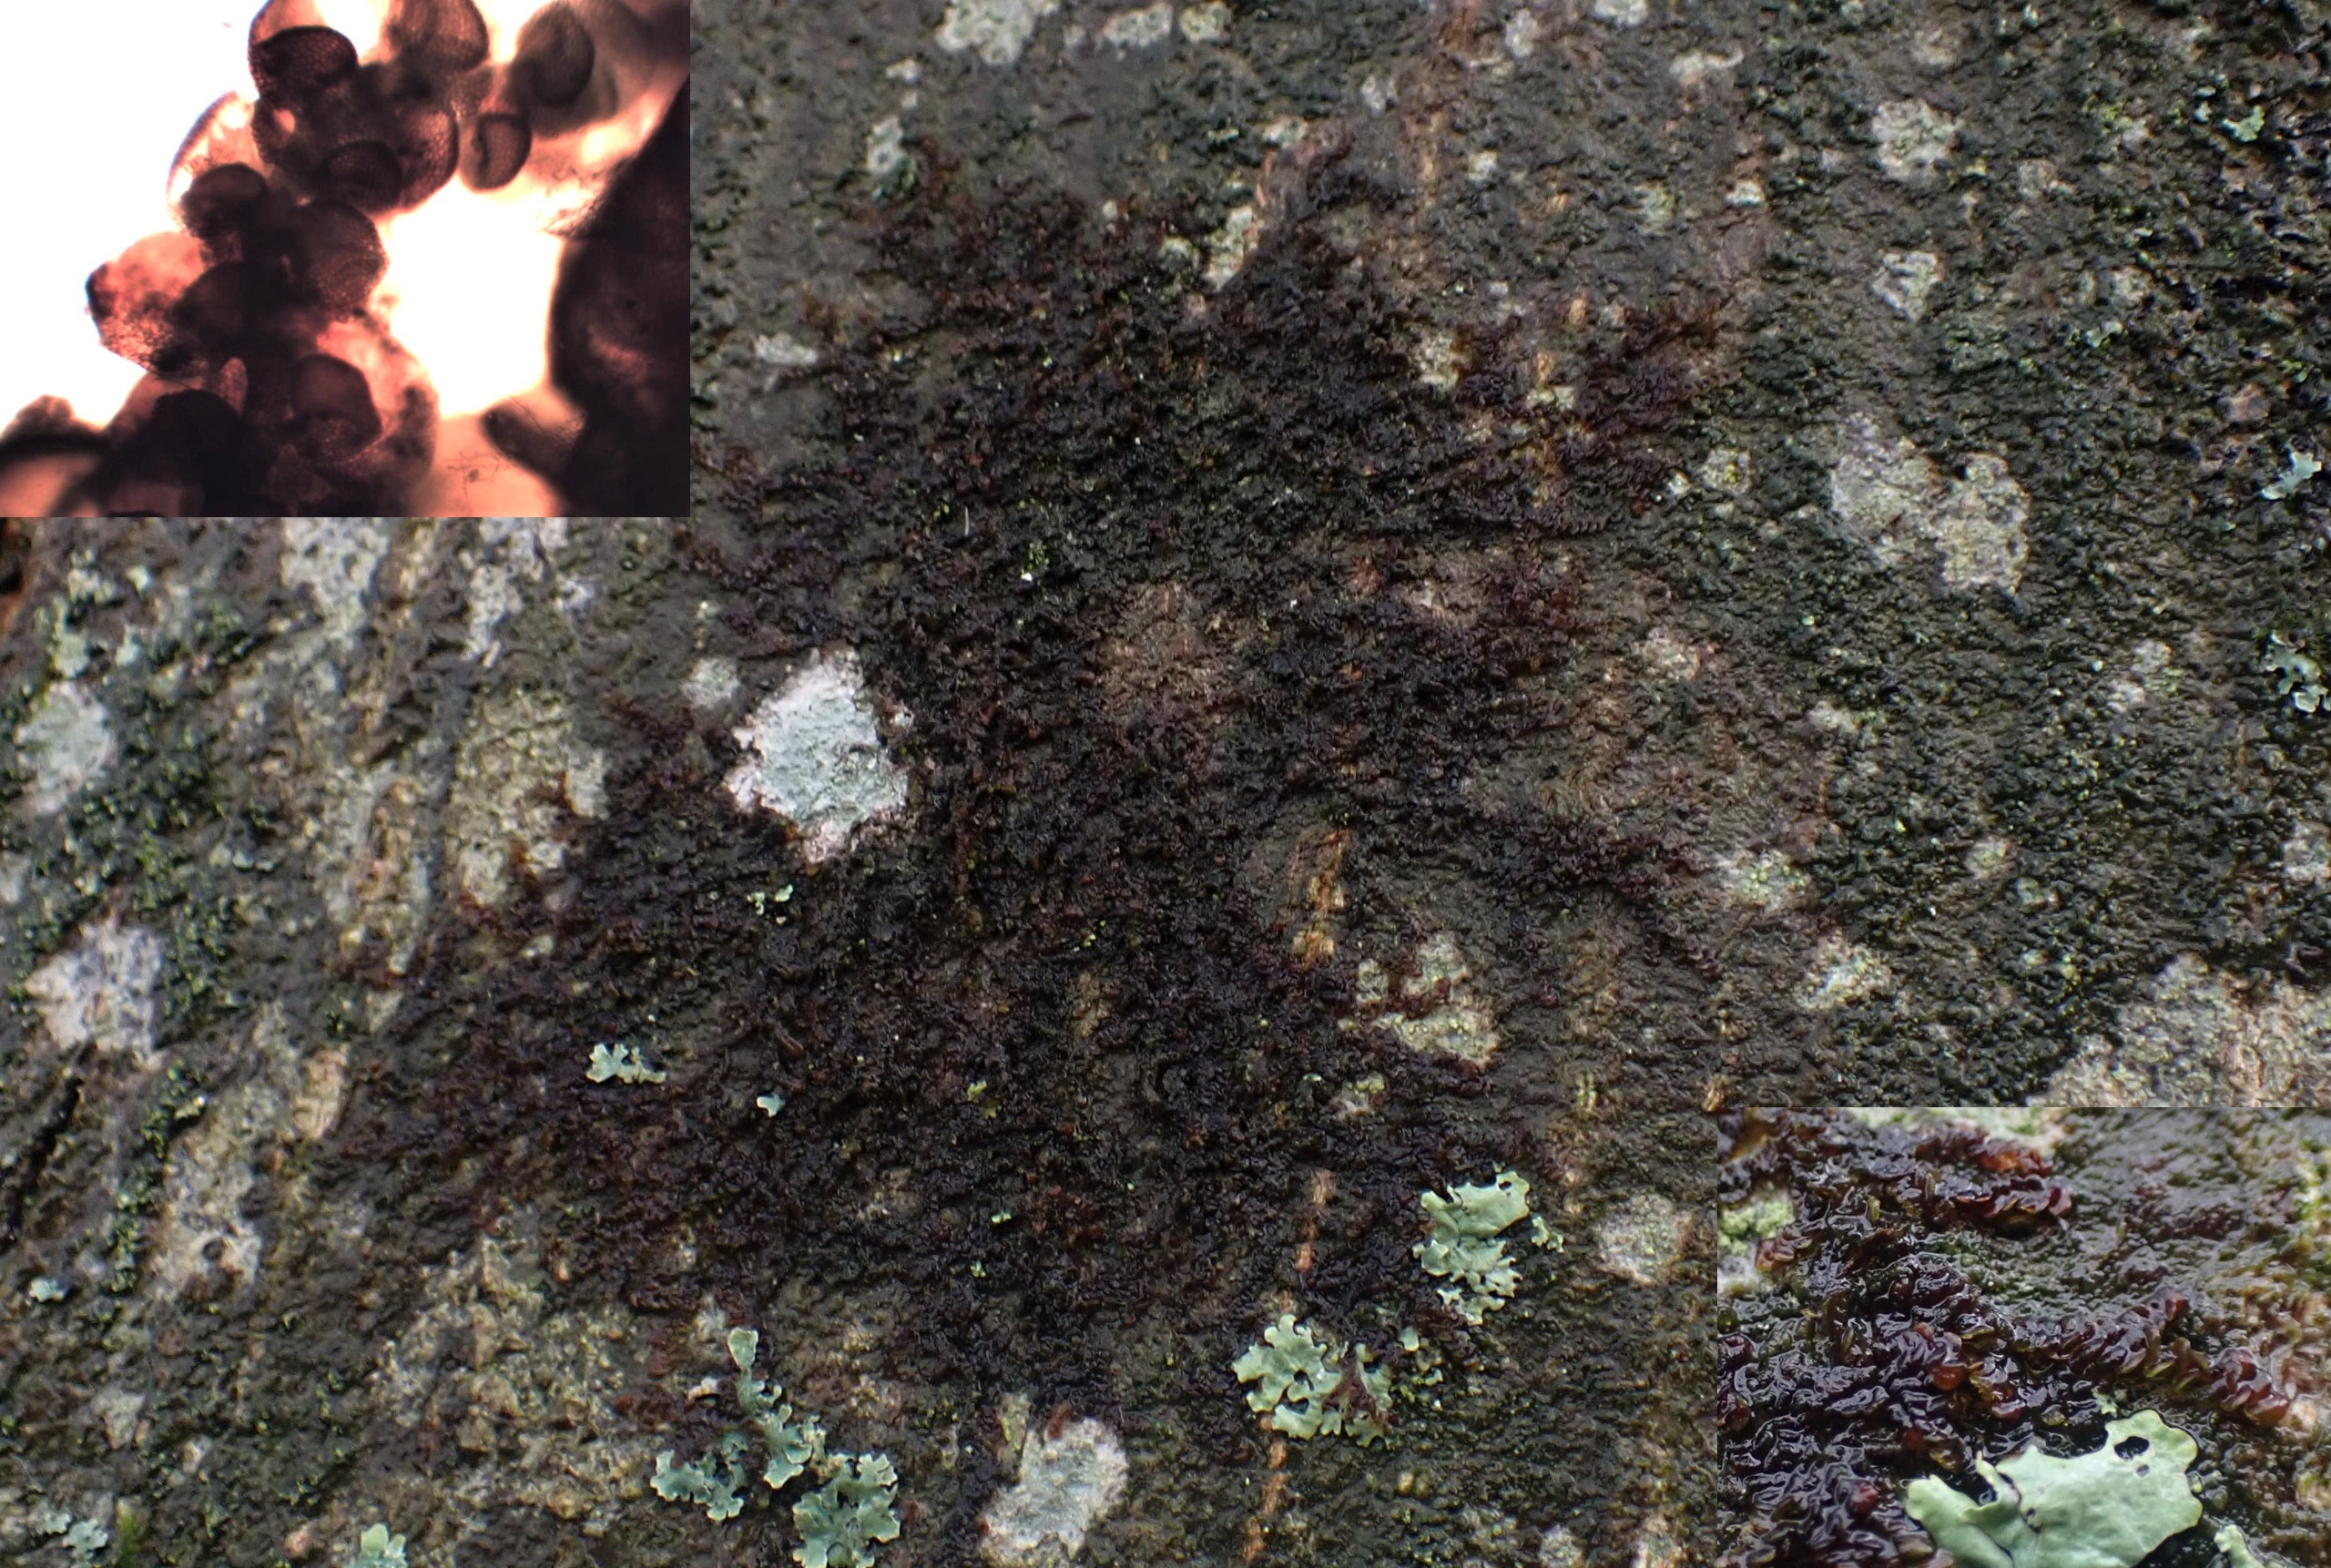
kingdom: Plantae
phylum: Marchantiophyta
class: Jungermanniopsida
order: Porellales
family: Frullaniaceae
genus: Frullania
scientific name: Frullania dilatata
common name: Mat bronzemos
